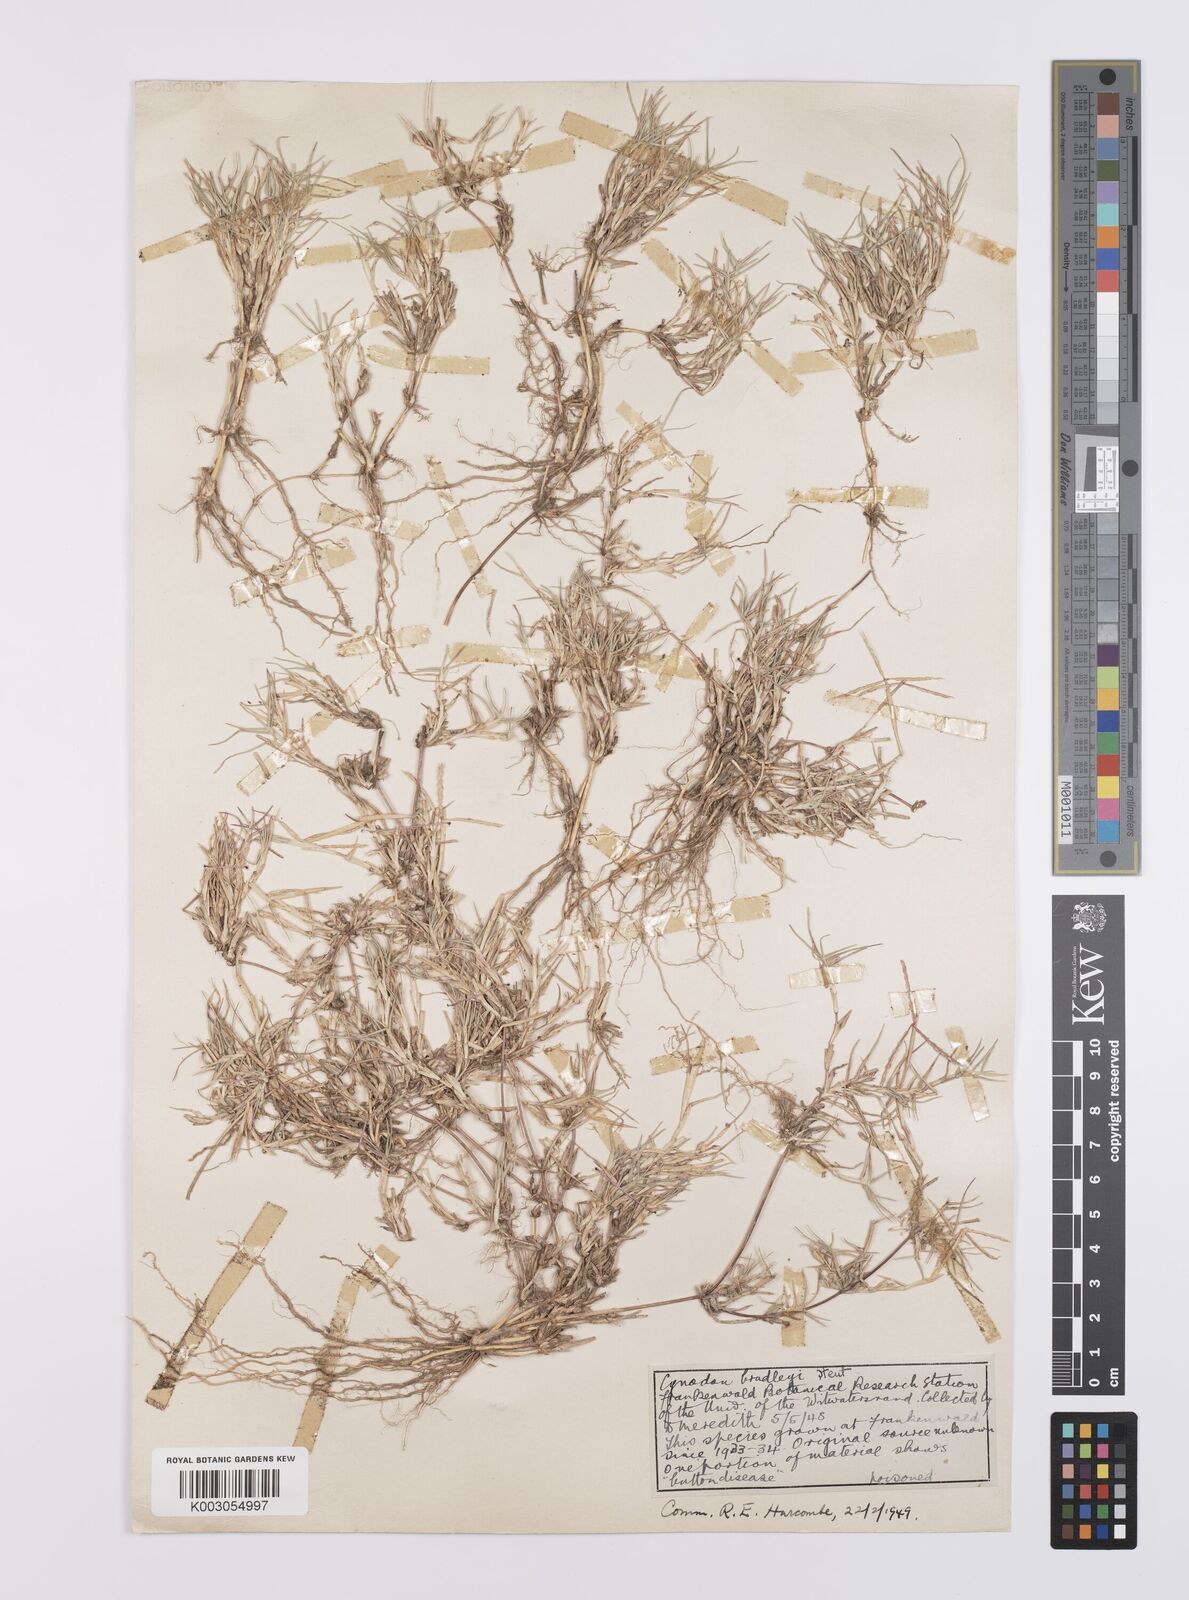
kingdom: Plantae
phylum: Tracheophyta
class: Liliopsida
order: Poales
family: Poaceae
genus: Cynodon
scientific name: Cynodon incompletus
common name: African bermuda-grass
